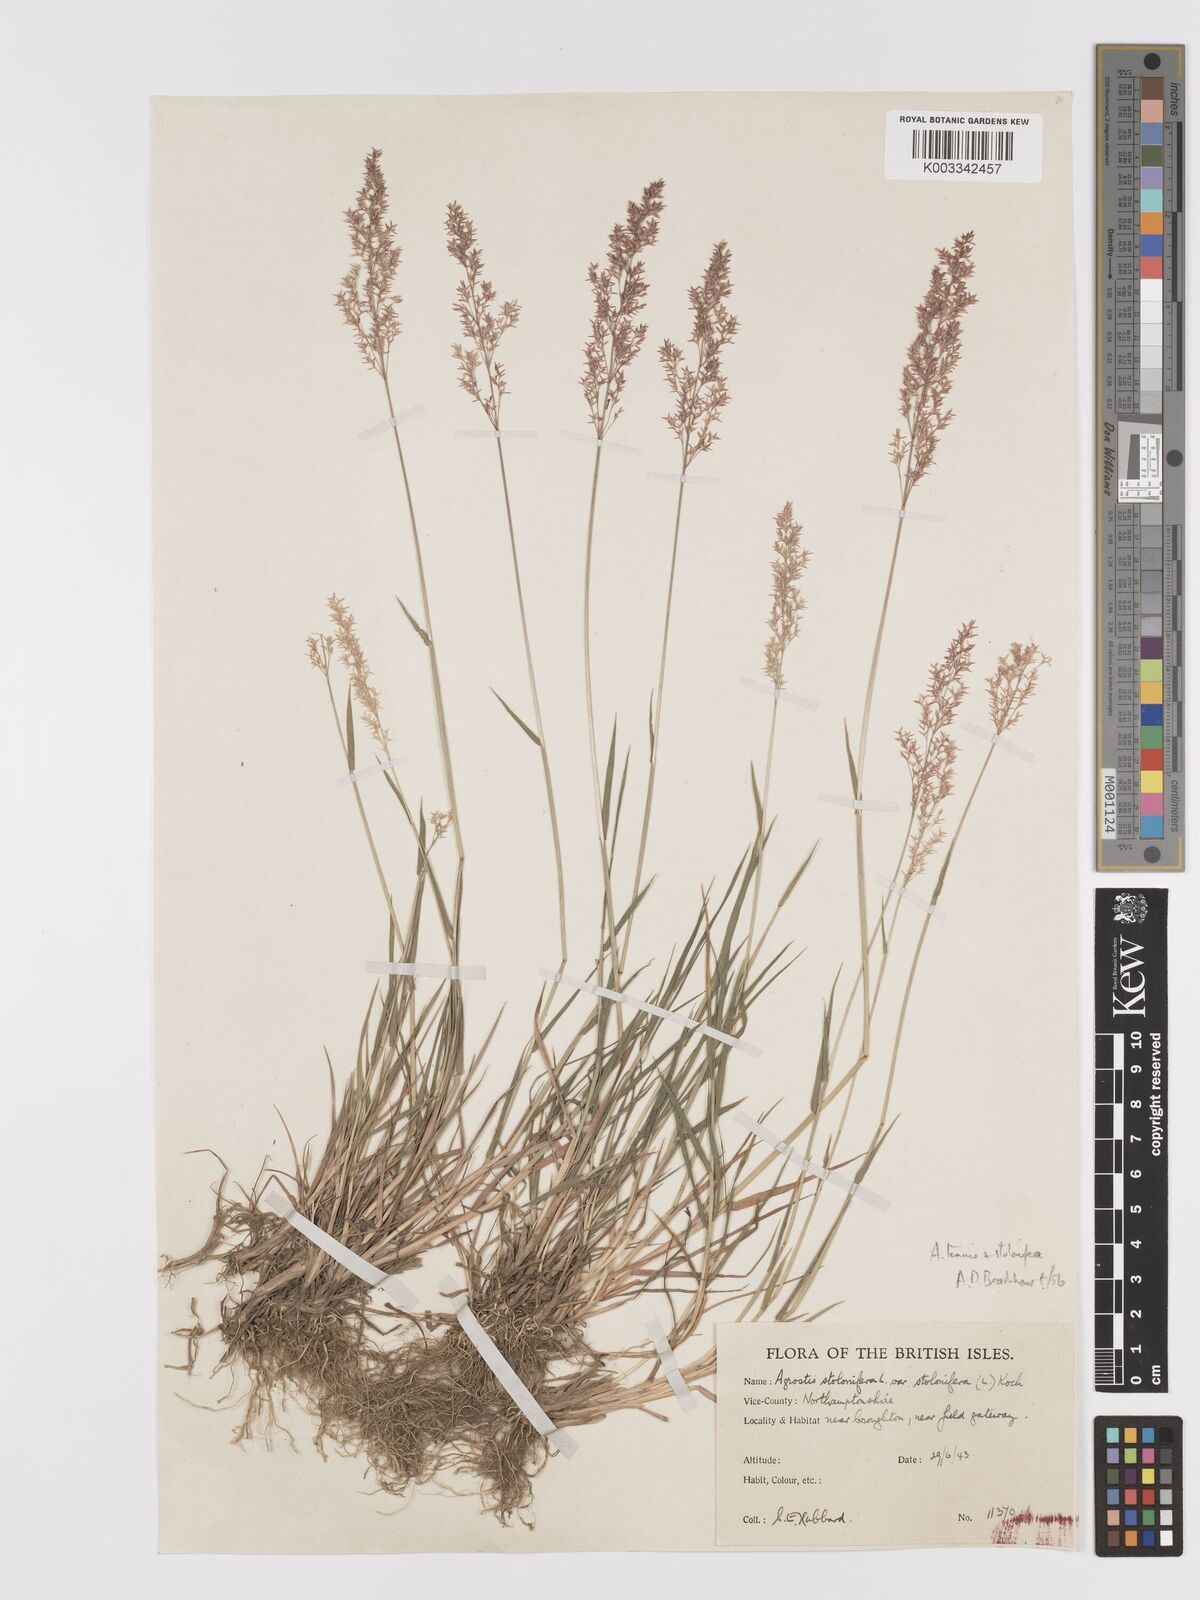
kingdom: Plantae
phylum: Tracheophyta
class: Liliopsida
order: Poales
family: Poaceae
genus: Agrostis
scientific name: Agrostis capillaris
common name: Colonial bentgrass
